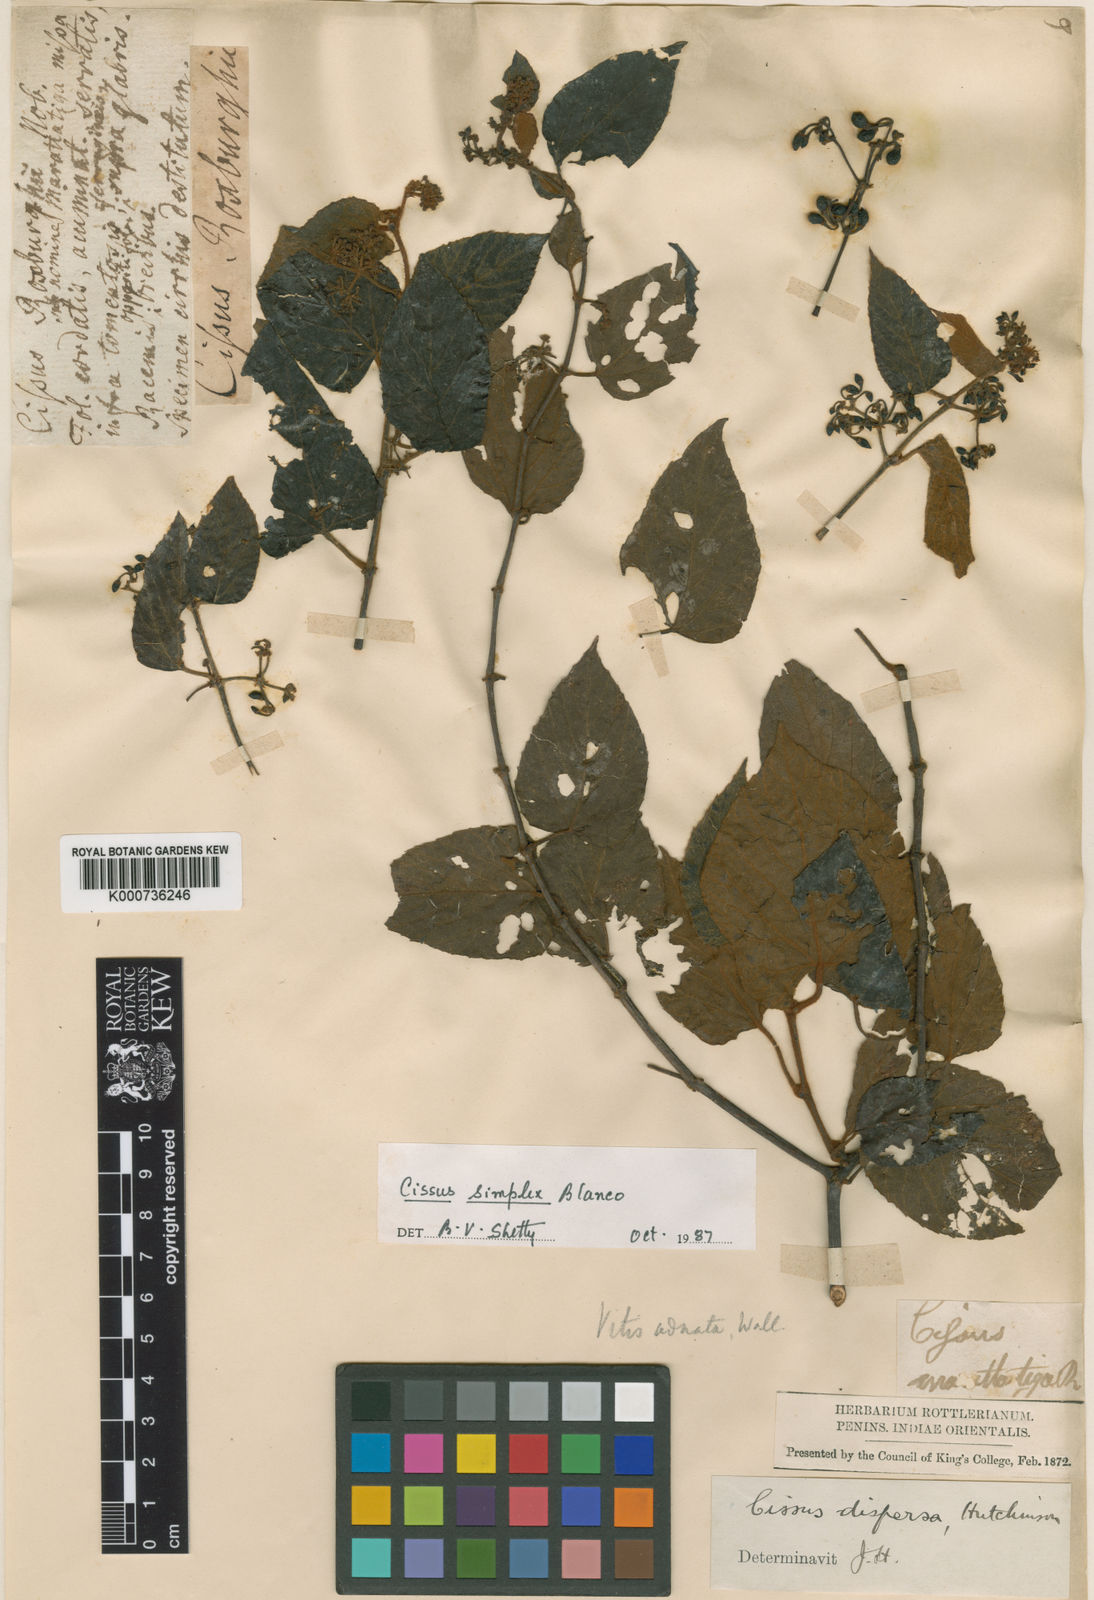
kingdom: Plantae
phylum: Tracheophyta
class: Magnoliopsida
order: Vitales
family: Vitaceae
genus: Cissus
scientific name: Cissus
